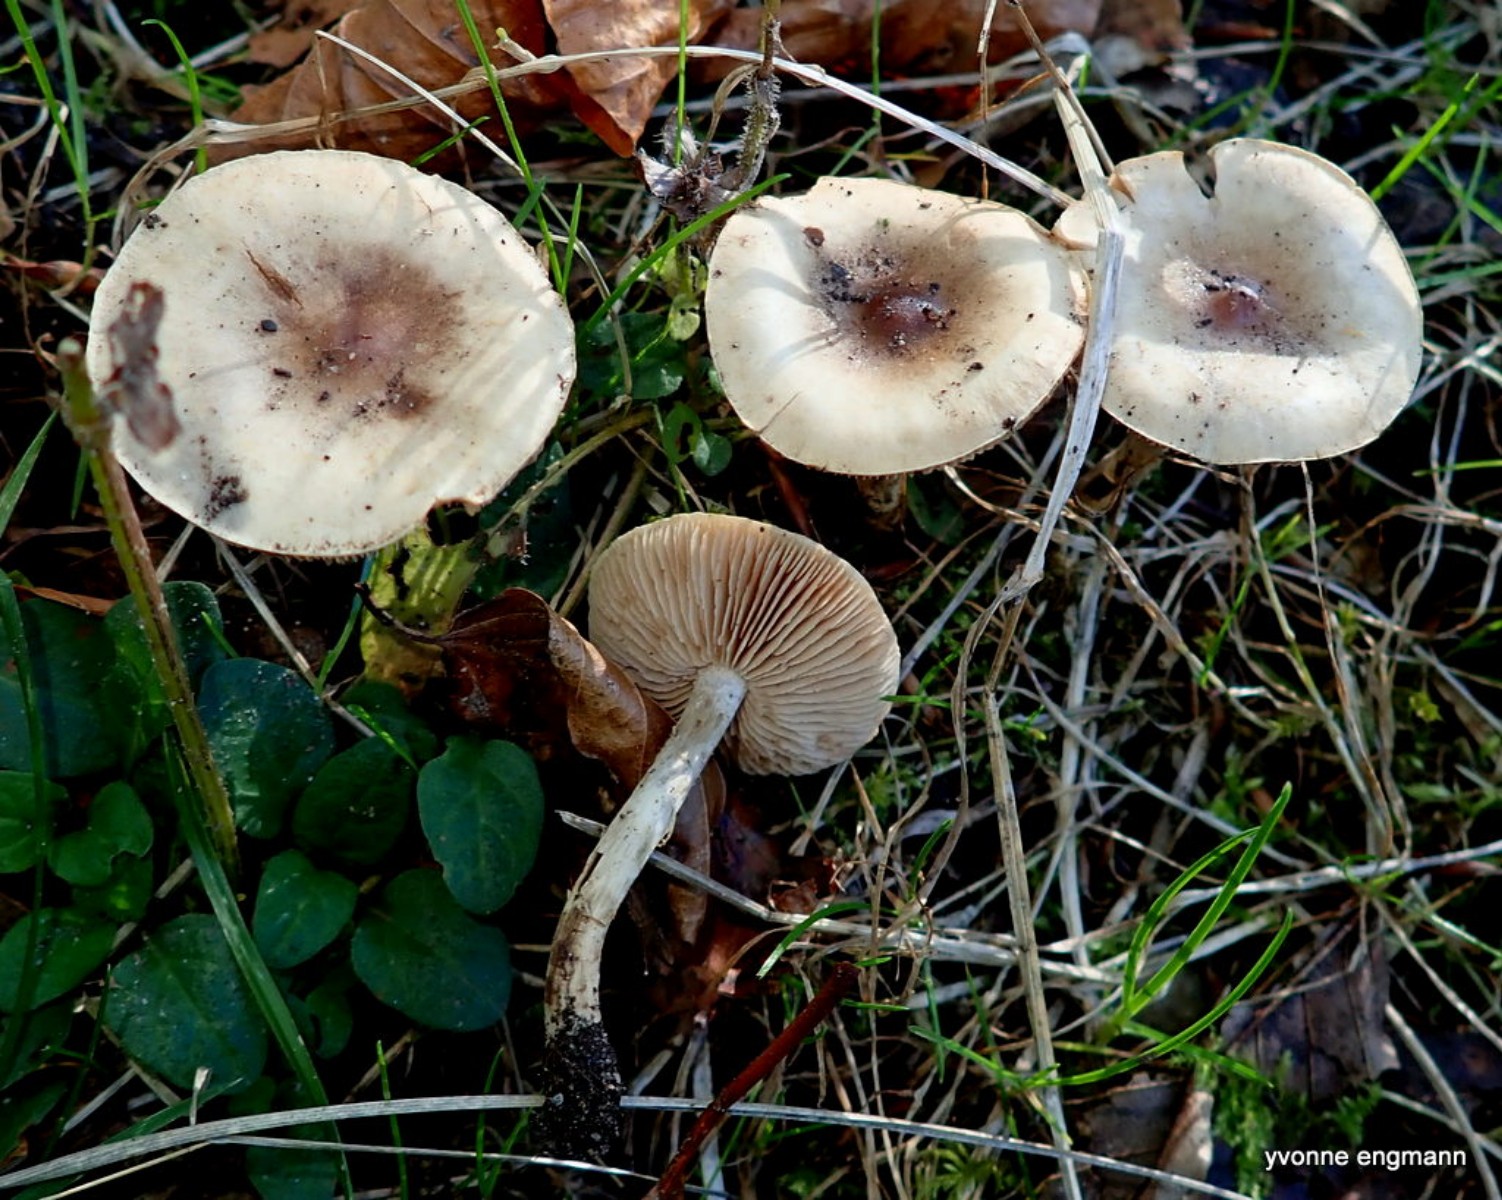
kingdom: Fungi
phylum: Basidiomycota
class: Agaricomycetes
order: Agaricales
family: Hymenogastraceae
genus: Hebeloma
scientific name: Hebeloma
